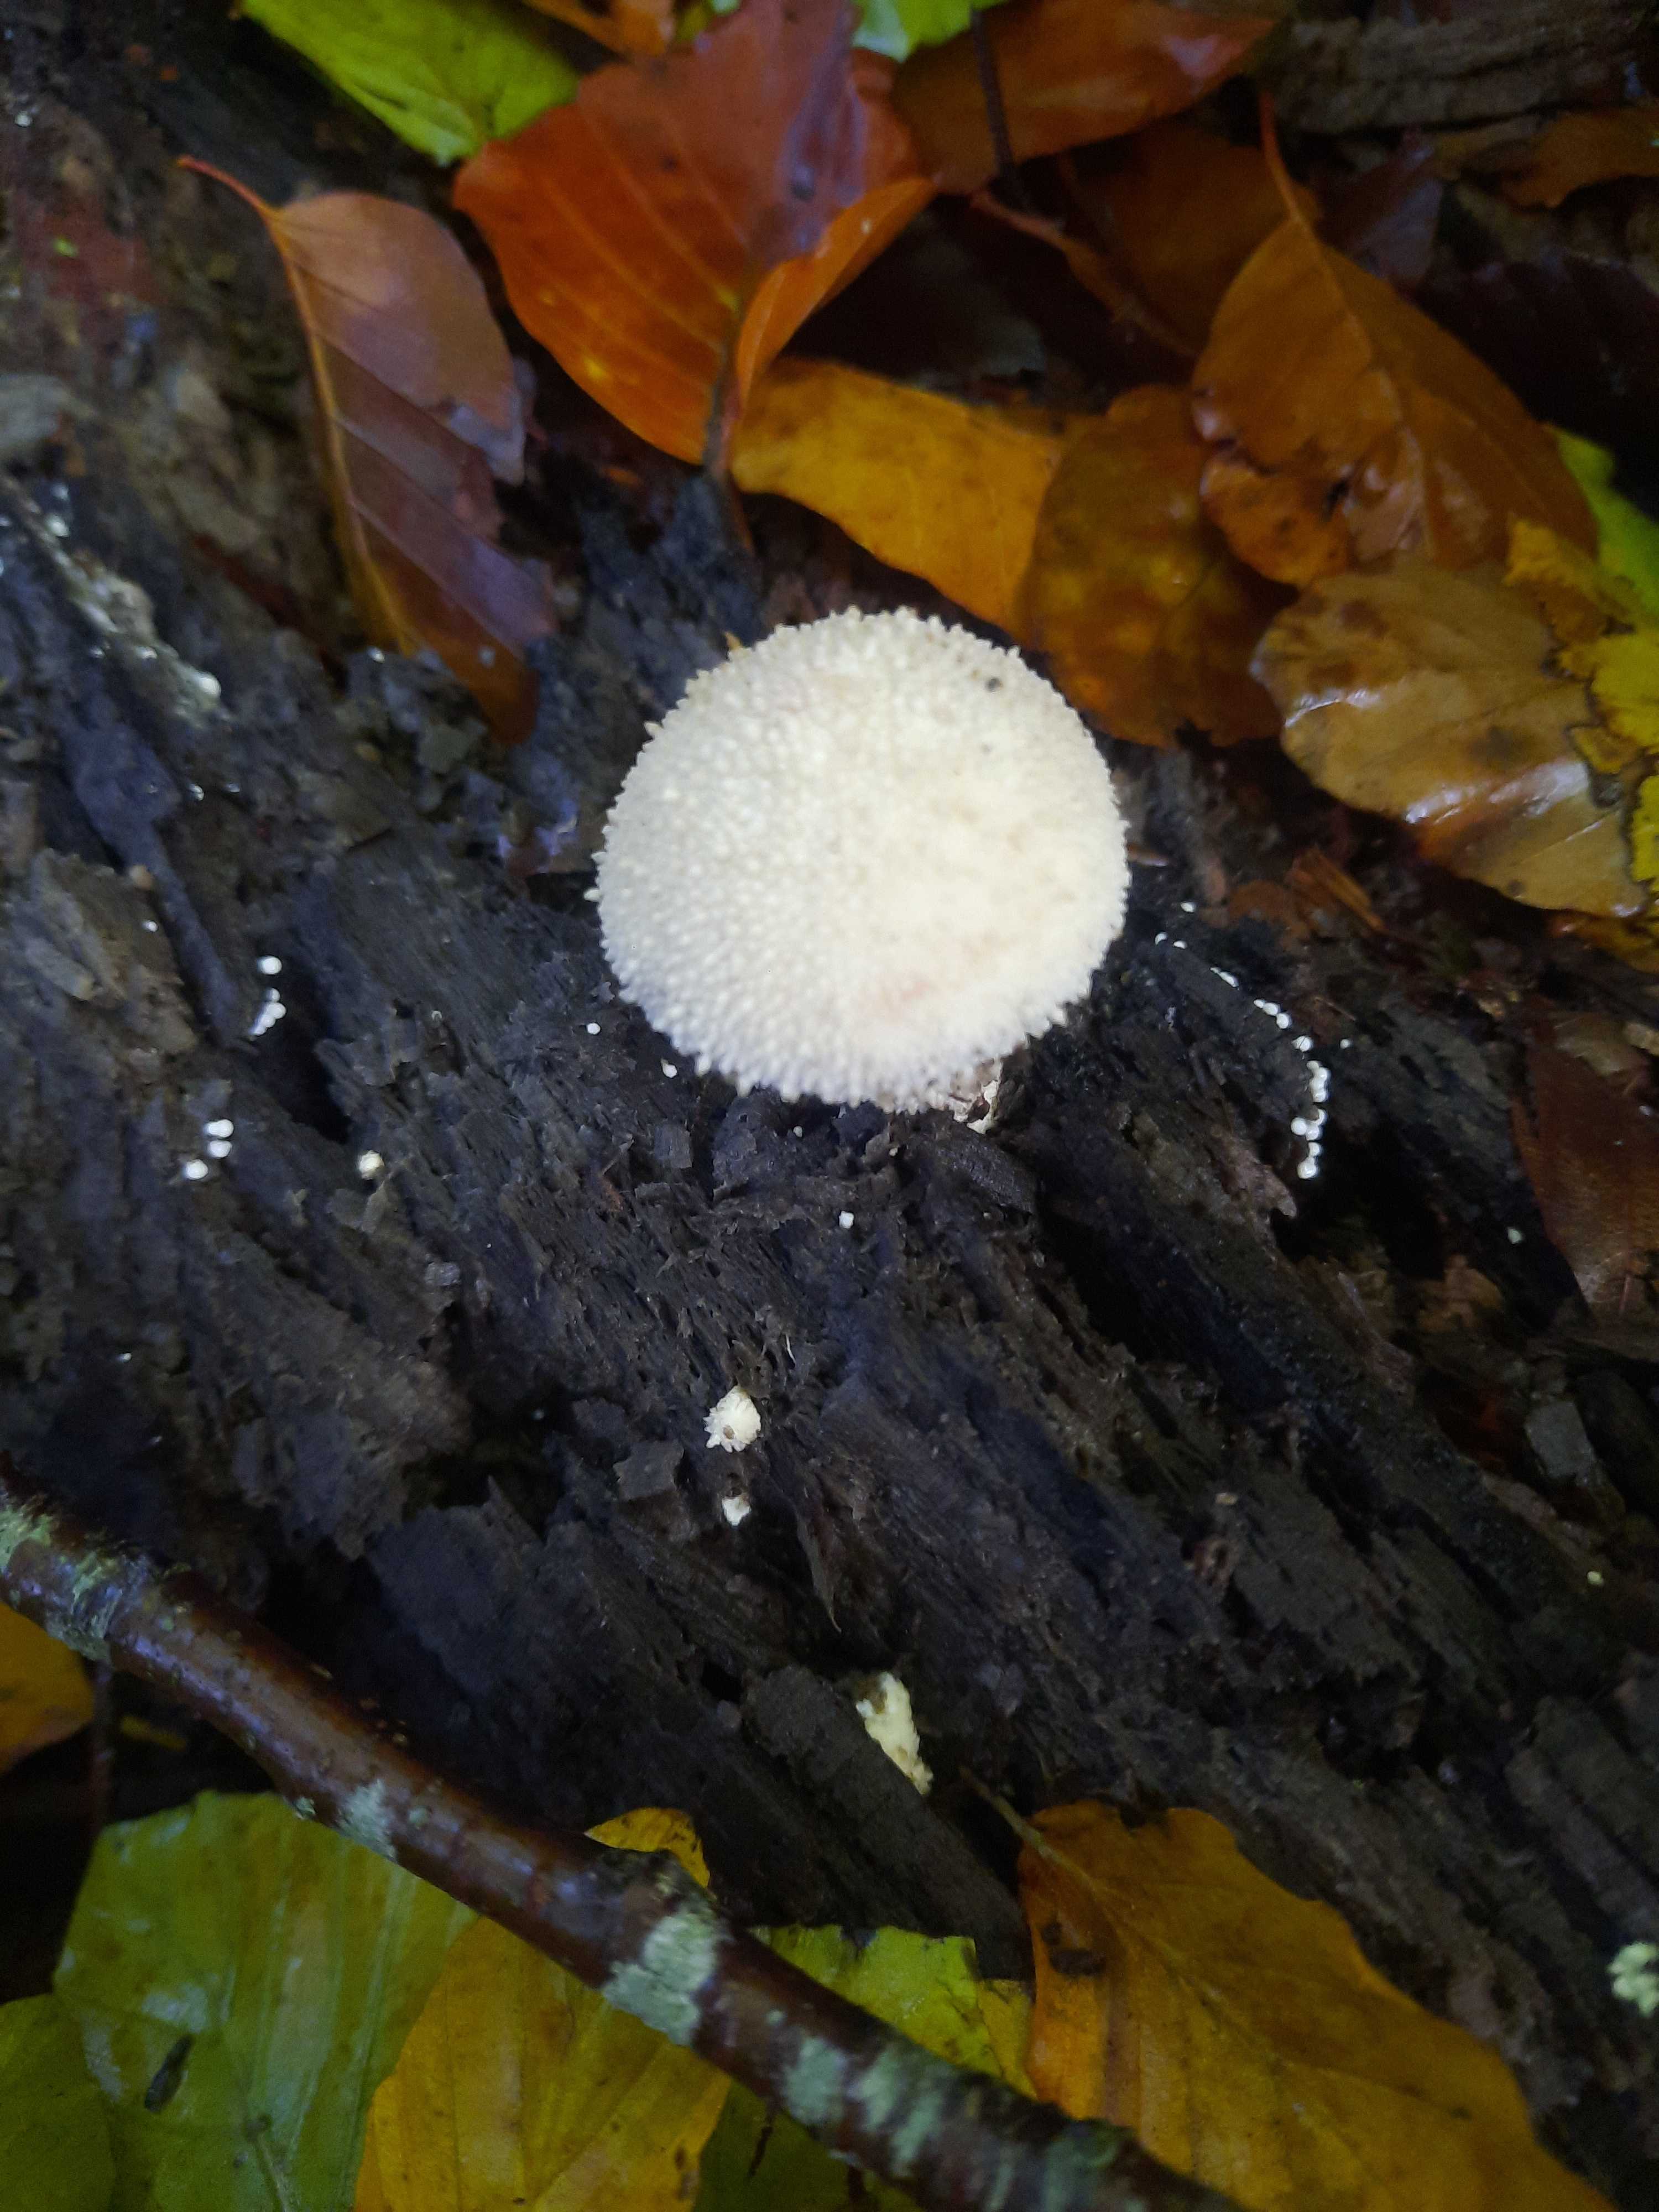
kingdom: Fungi
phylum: Basidiomycota
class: Agaricomycetes
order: Agaricales
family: Lycoperdaceae
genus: Lycoperdon
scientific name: Lycoperdon perlatum
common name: krystal-støvbold
